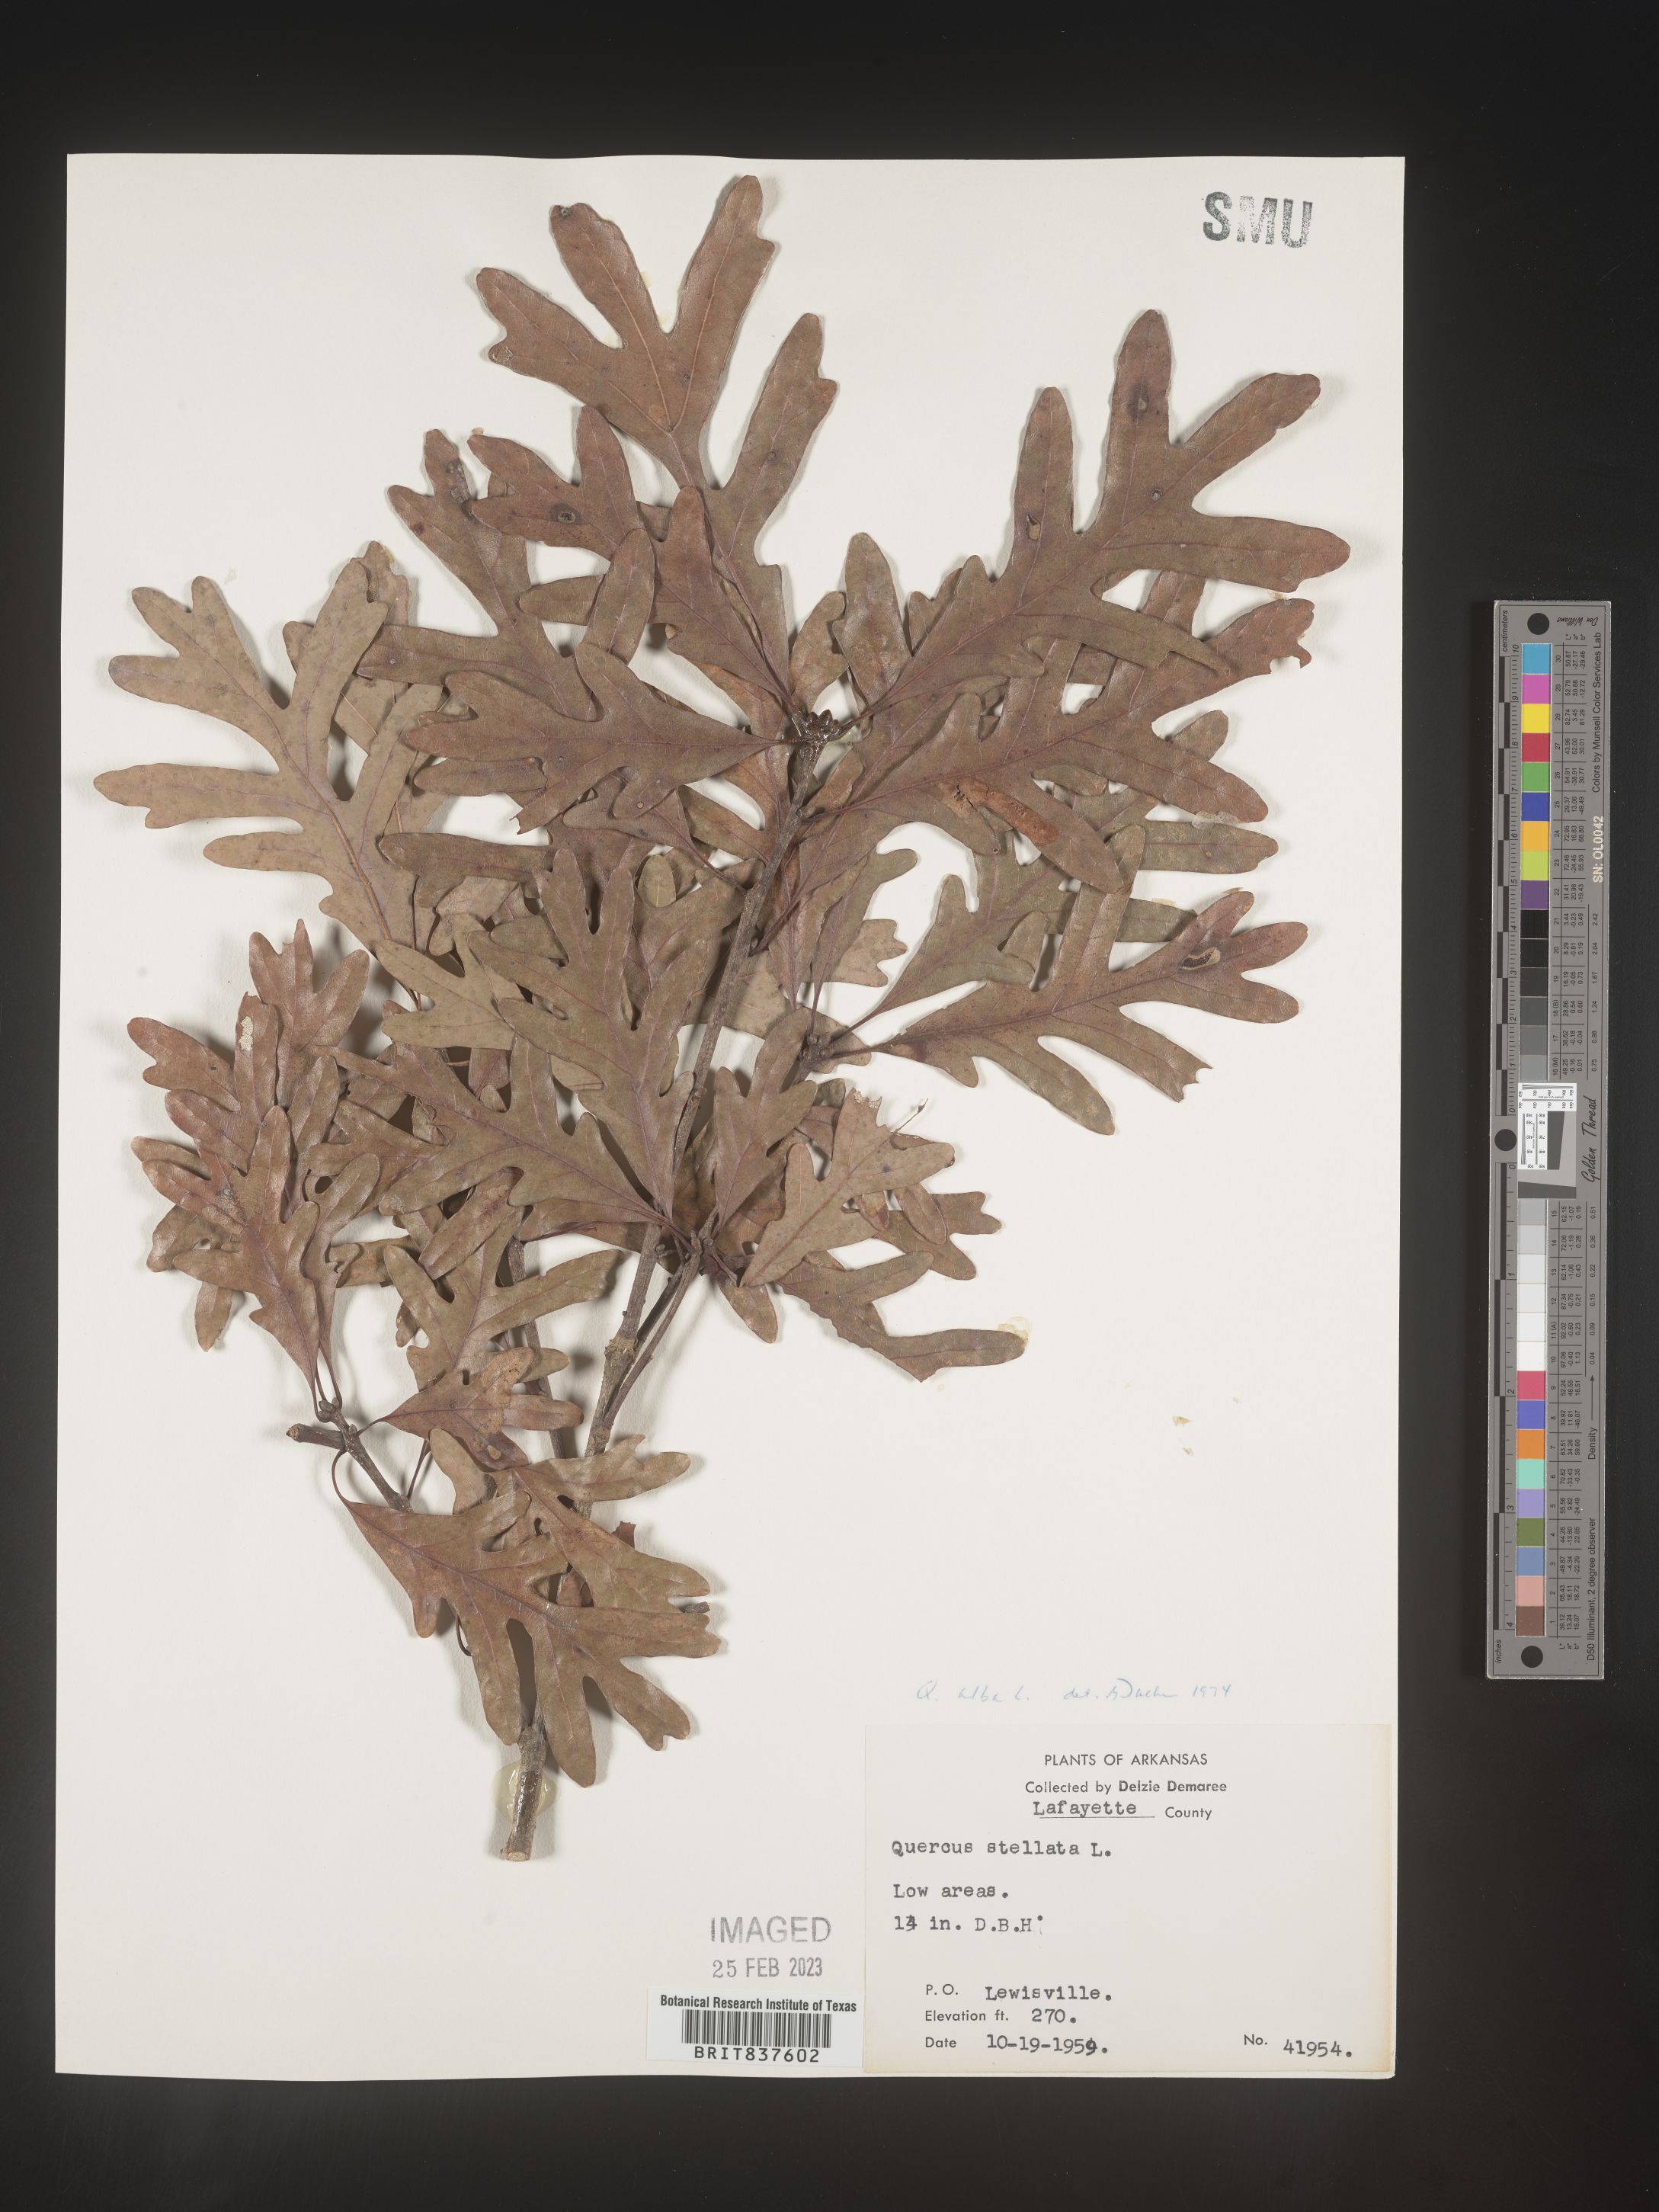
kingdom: Plantae
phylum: Tracheophyta
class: Magnoliopsida
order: Fagales
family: Fagaceae
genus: Quercus
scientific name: Quercus alba
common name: White oak
